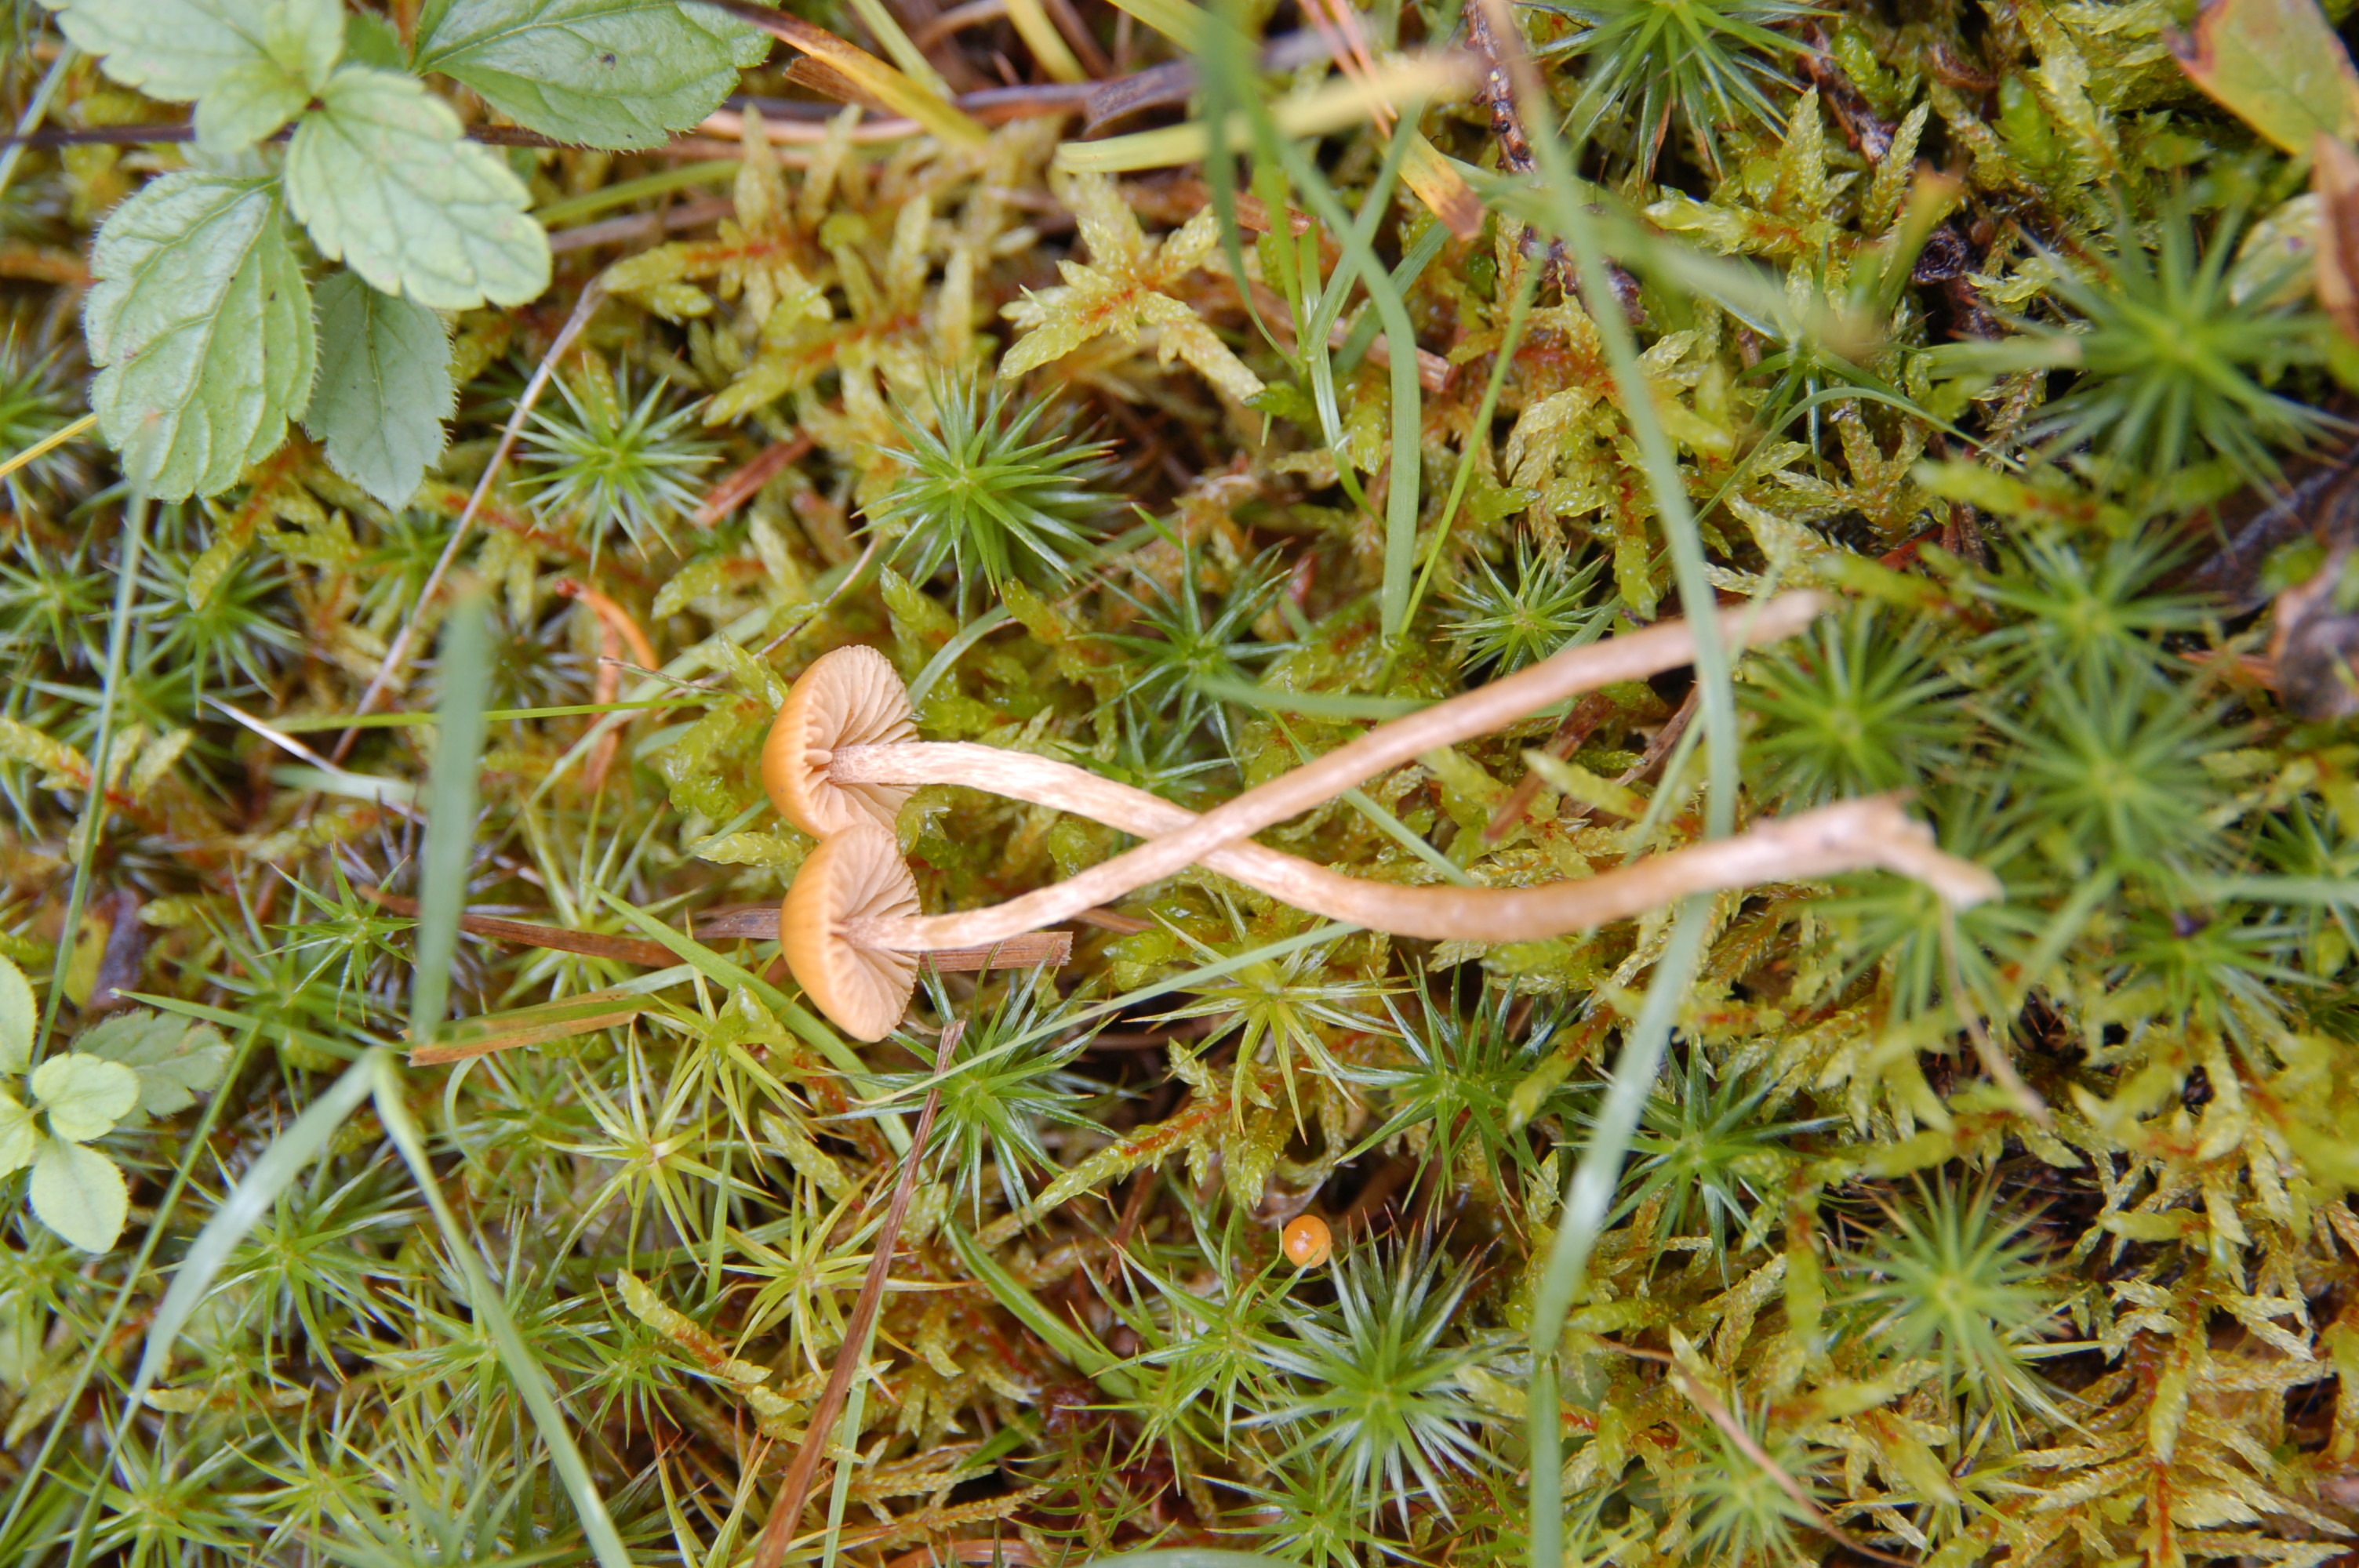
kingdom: Fungi
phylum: Basidiomycota
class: Agaricomycetes
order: Agaricales
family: Hymenogastraceae
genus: Galerina
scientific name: Galerina
